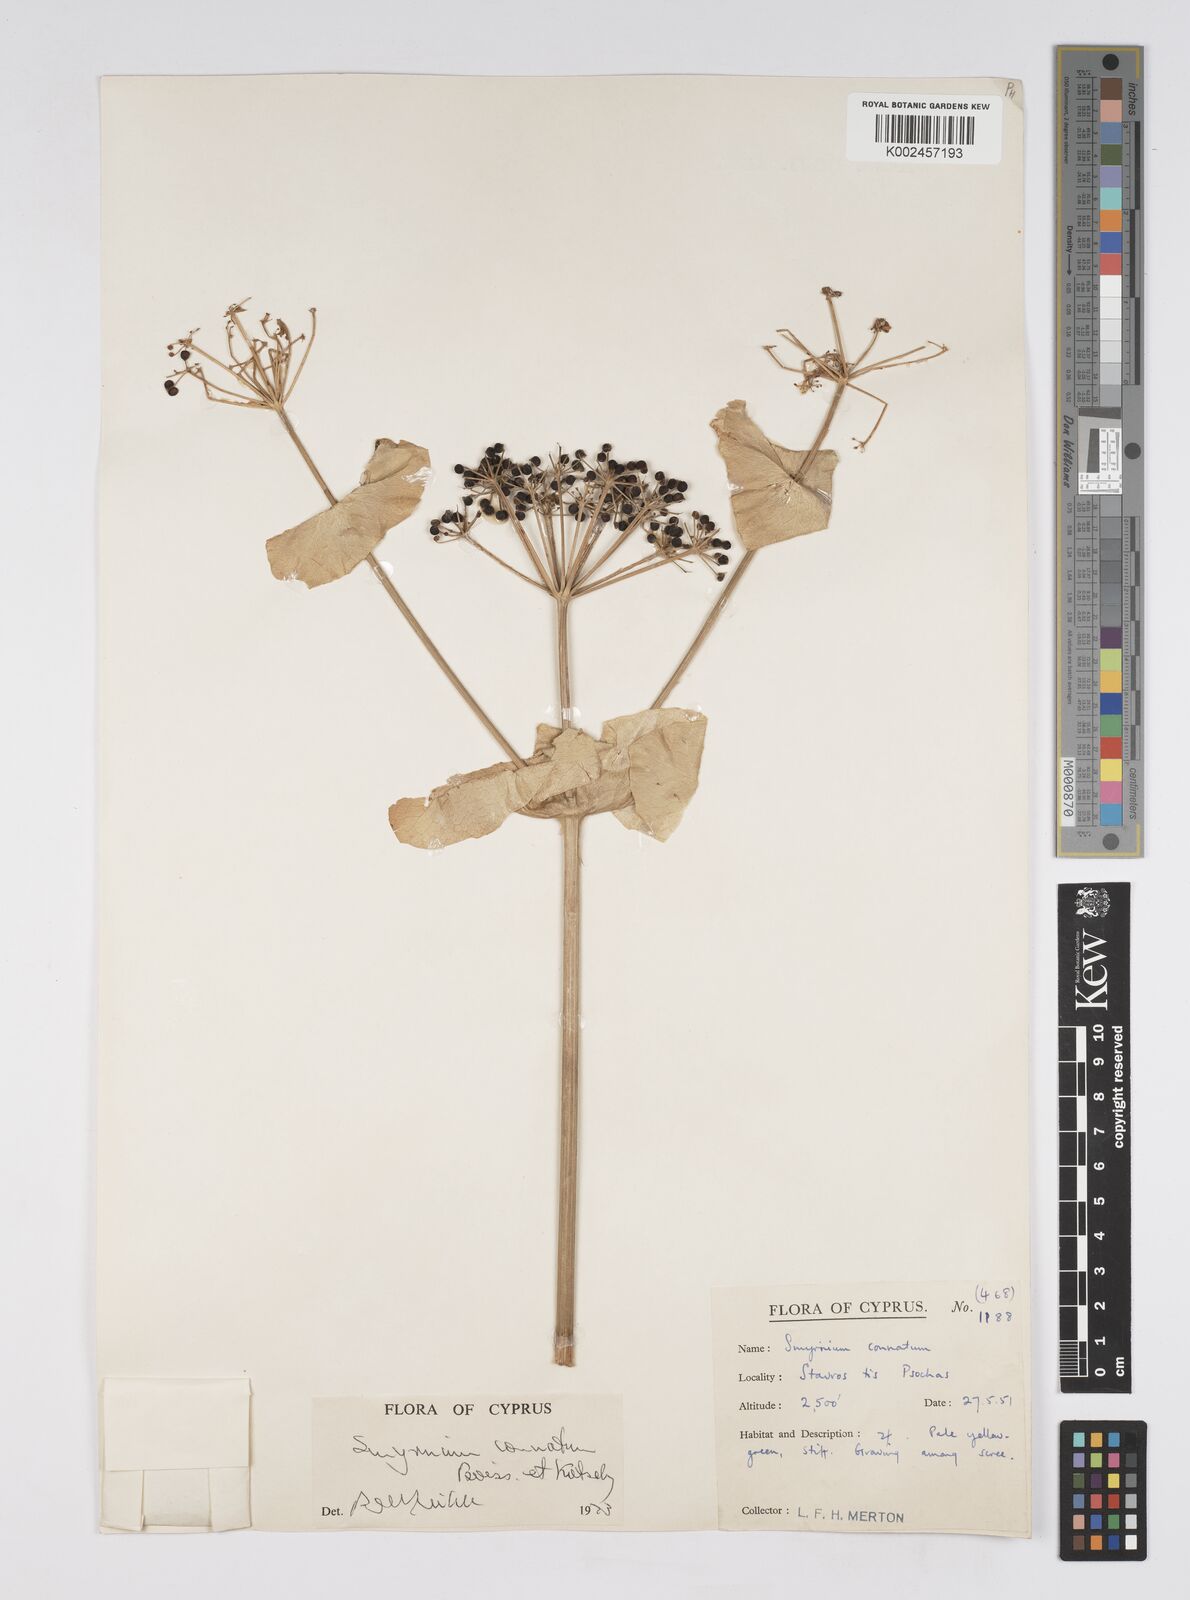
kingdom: Plantae
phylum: Tracheophyta
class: Magnoliopsida
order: Apiales
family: Apiaceae
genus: Smyrnium
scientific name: Smyrnium connatum
